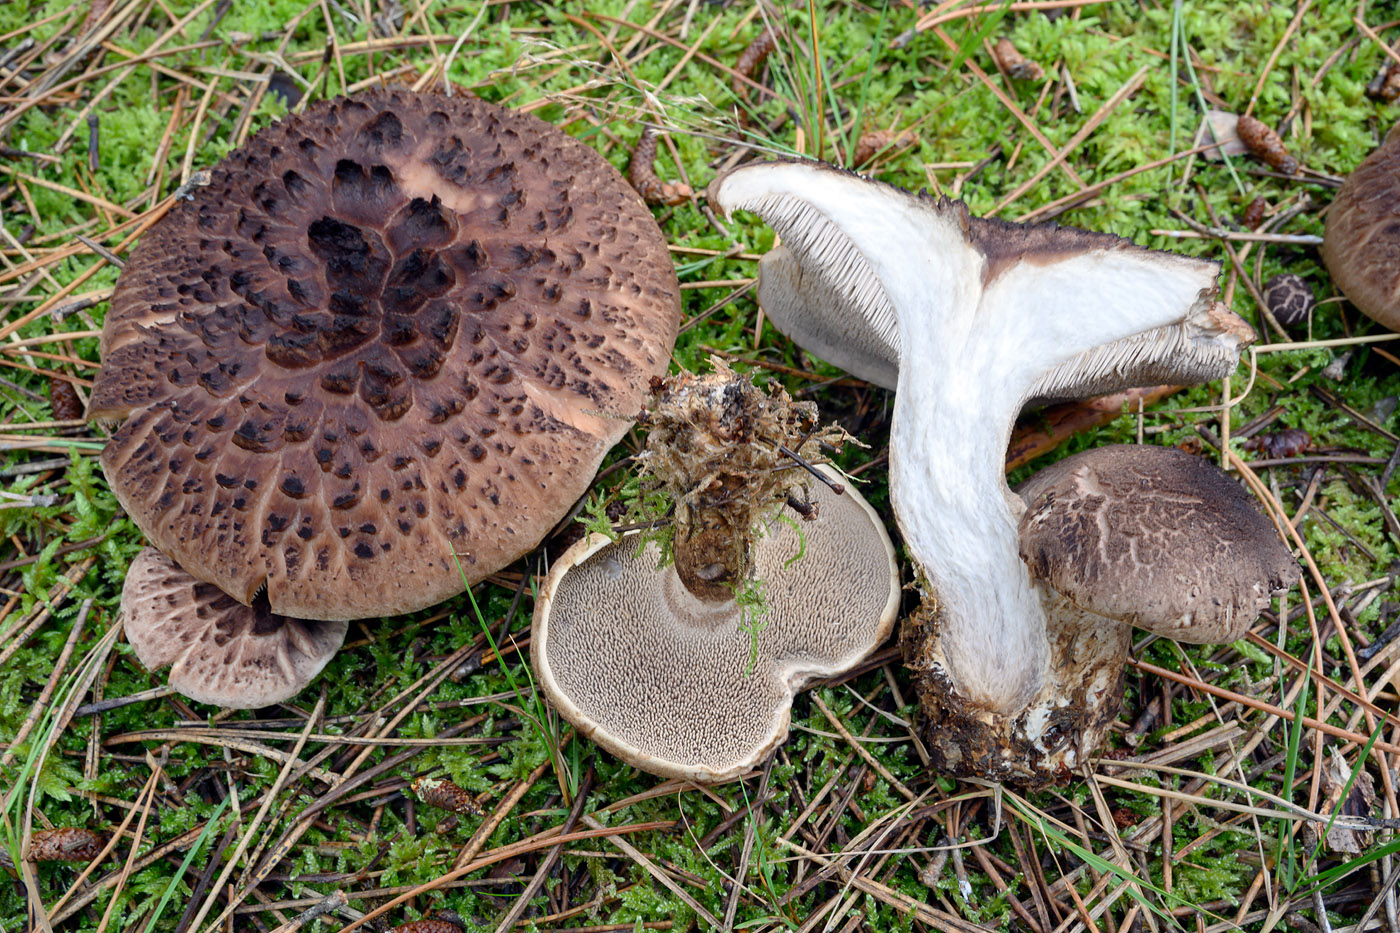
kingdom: Fungi
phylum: Basidiomycota
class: Agaricomycetes
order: Thelephorales
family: Bankeraceae
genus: Sarcodon
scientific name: Sarcodon squamosus
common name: småskællet kødpigsvamp
